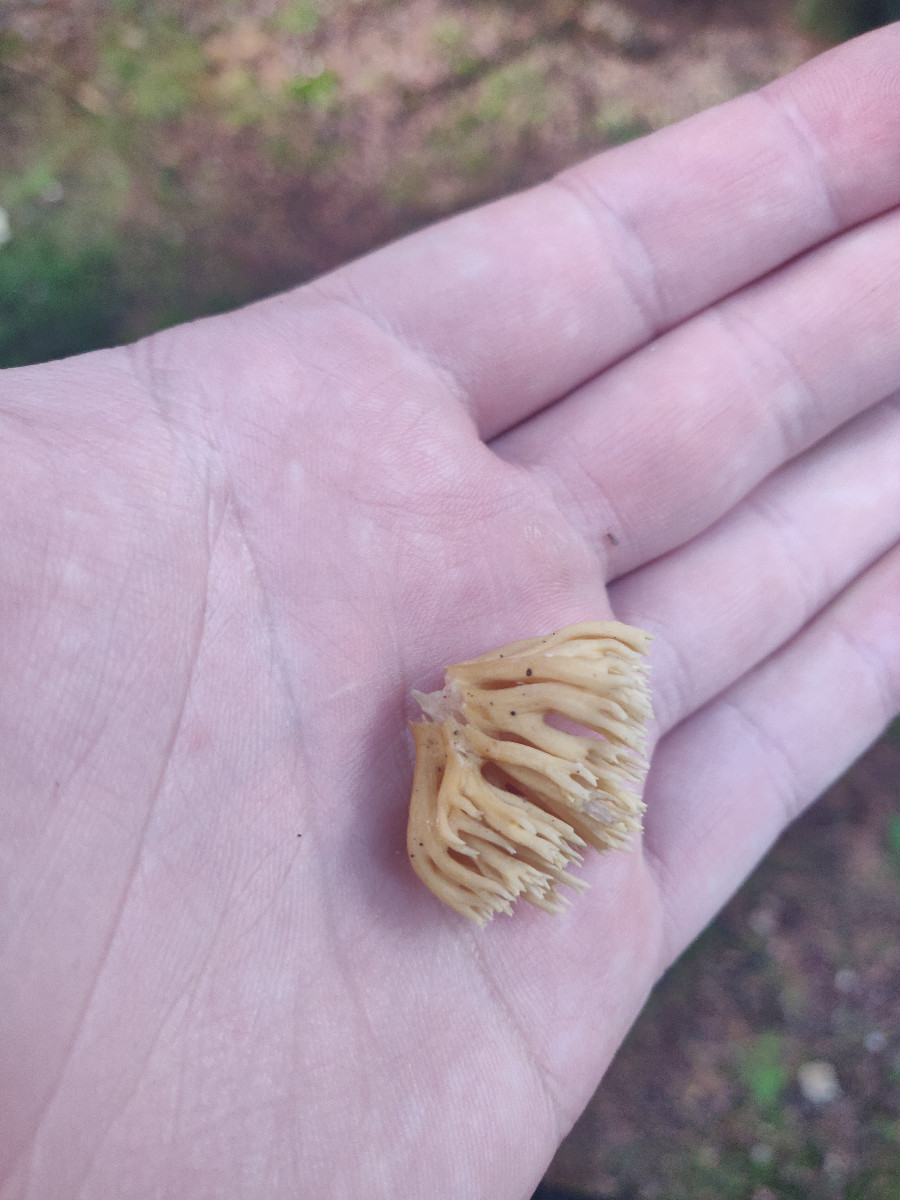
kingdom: Fungi
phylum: Basidiomycota
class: Agaricomycetes
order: Gomphales
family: Gomphaceae
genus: Ramaria
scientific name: Ramaria stricta
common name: rank koralsvamp
